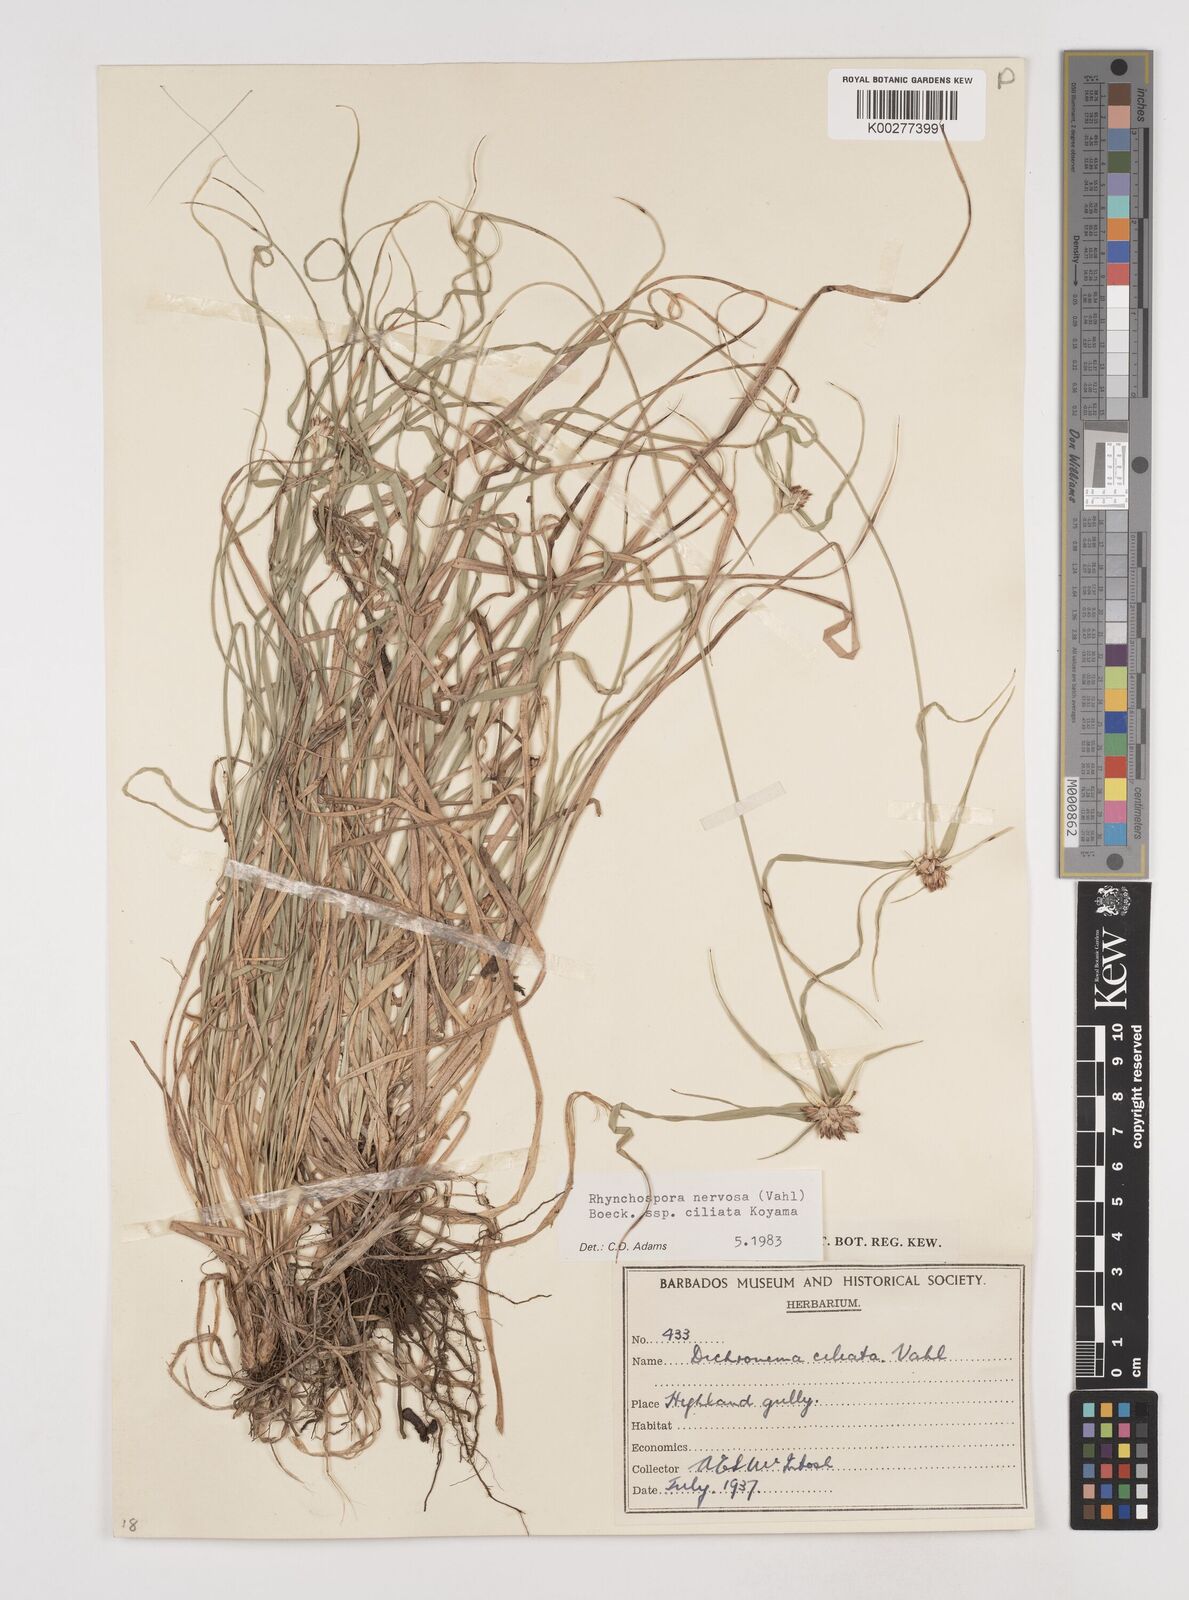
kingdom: Plantae
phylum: Tracheophyta
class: Liliopsida
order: Poales
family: Cyperaceae
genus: Rhynchospora
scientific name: Rhynchospora pura
